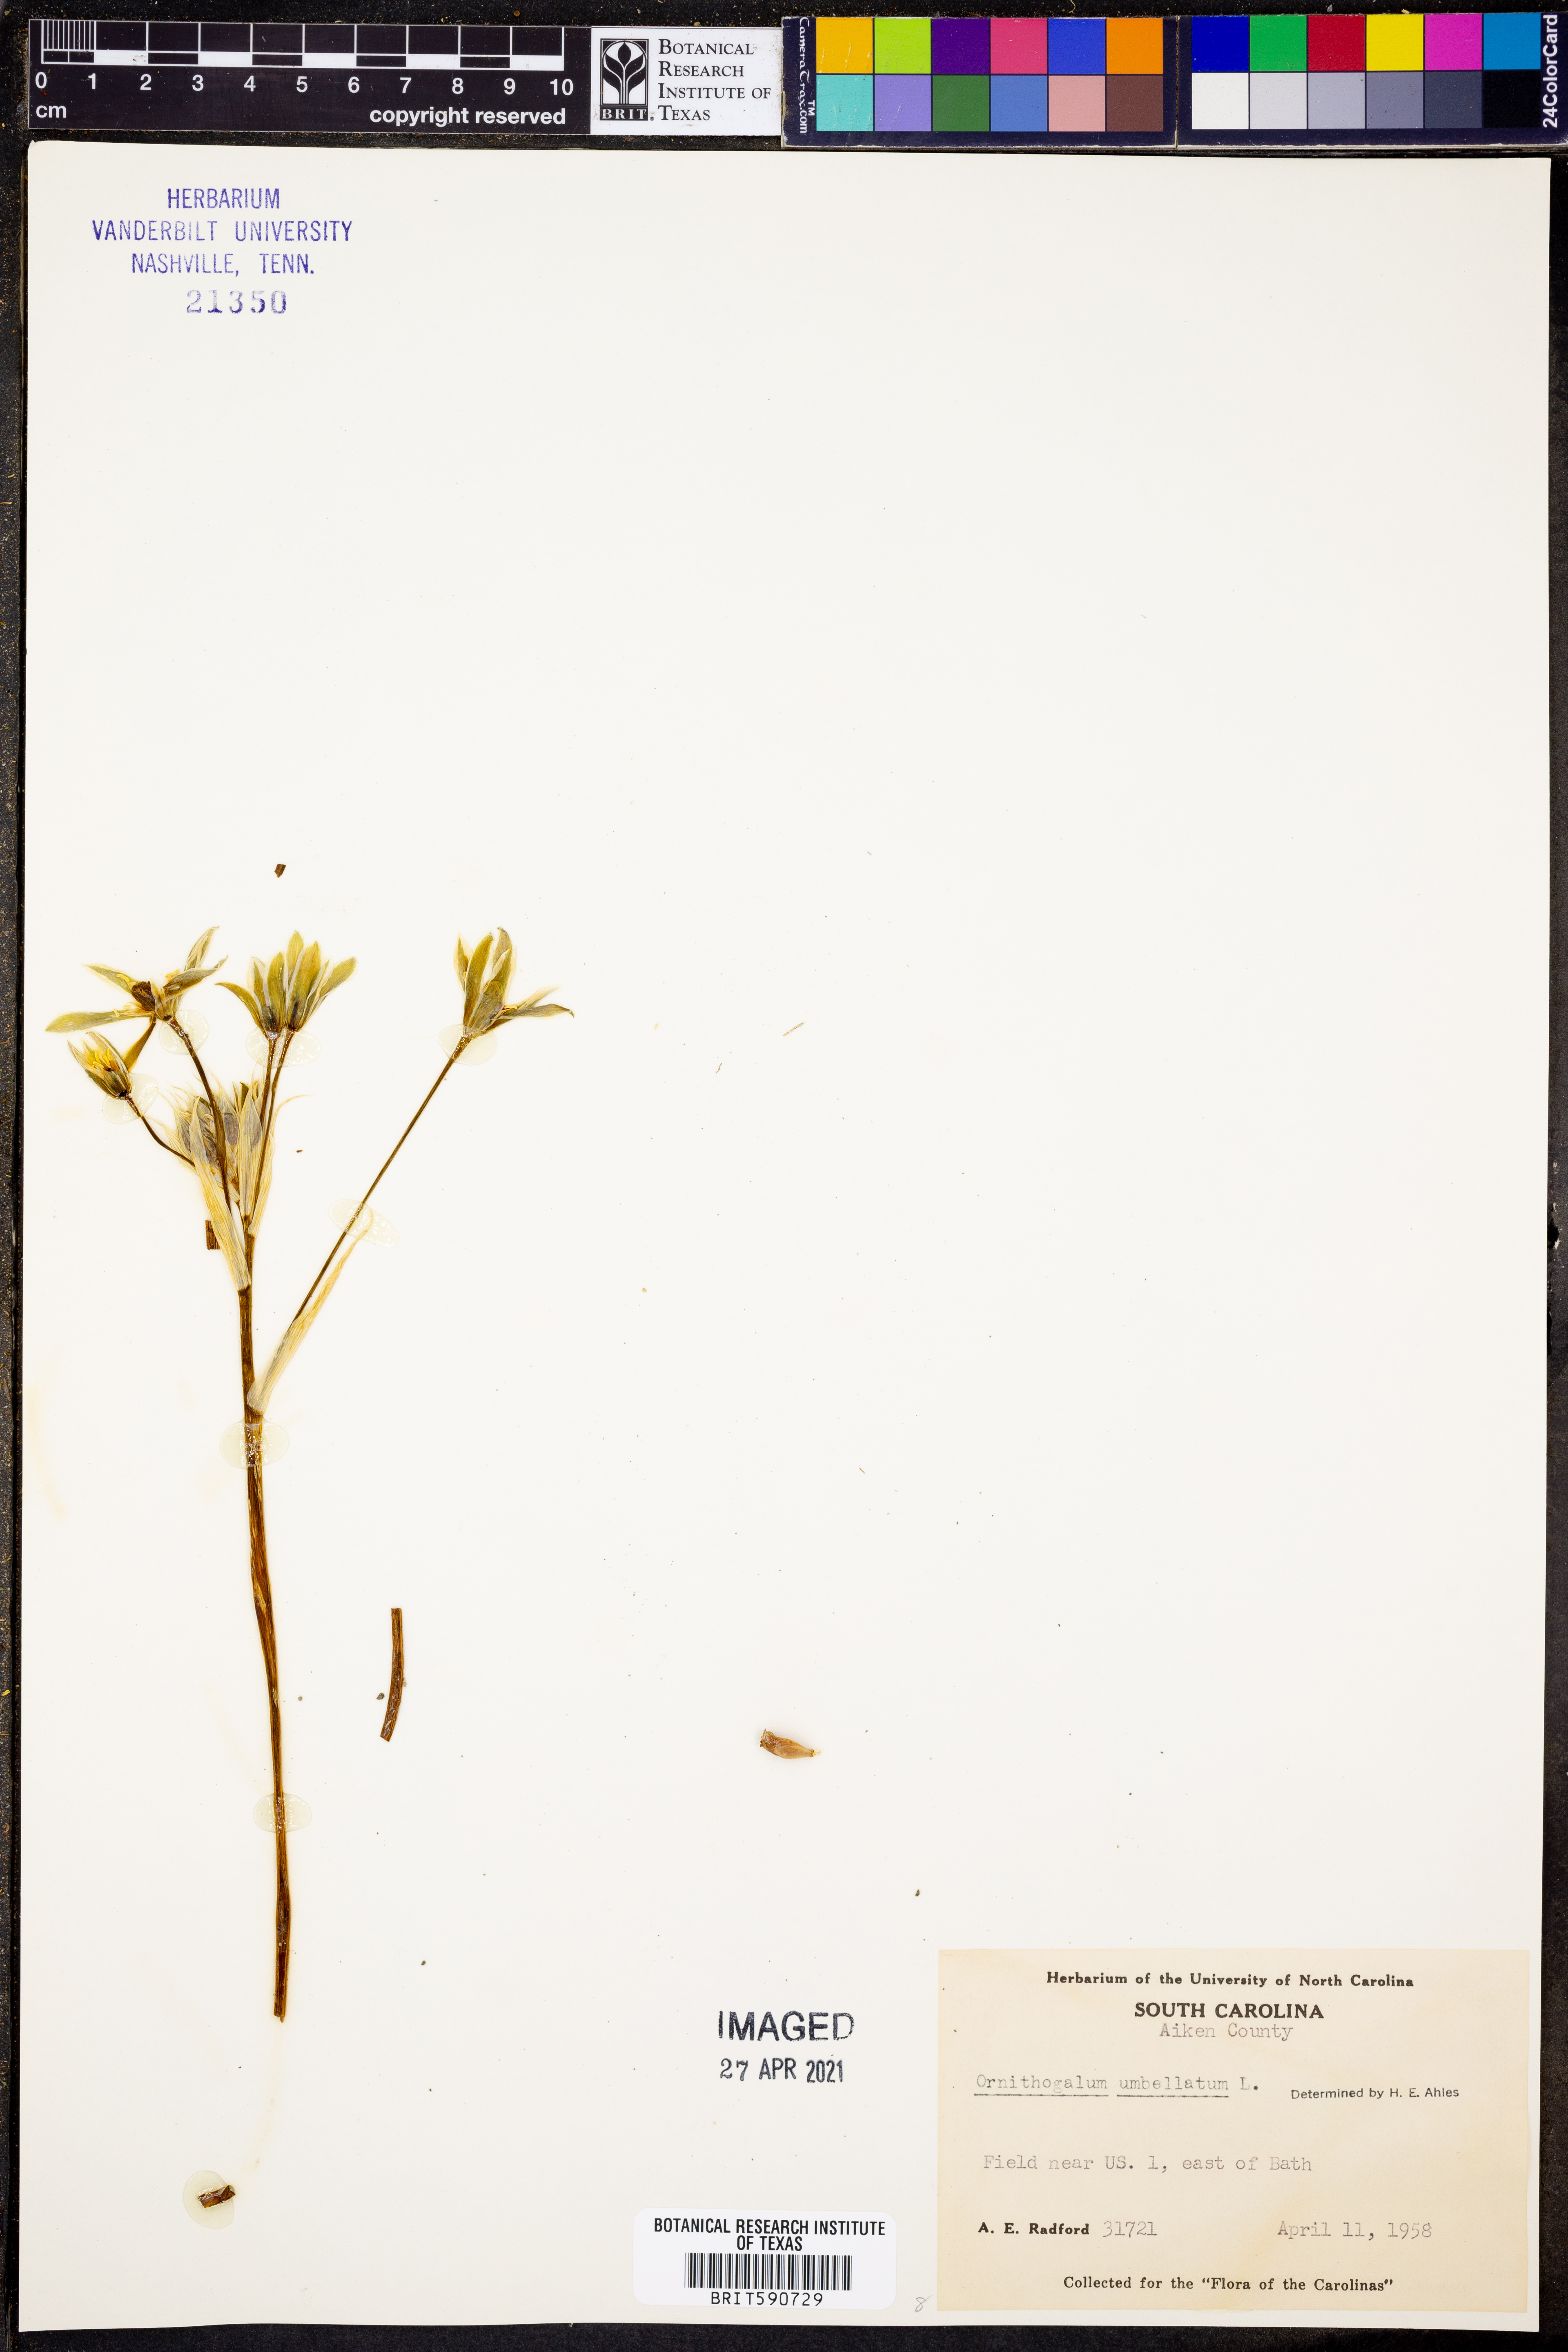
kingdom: Plantae
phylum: Tracheophyta
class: Liliopsida
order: Asparagales
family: Asparagaceae
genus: Ornithogalum
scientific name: Ornithogalum umbellatum
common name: Garden star-of-bethlehem
